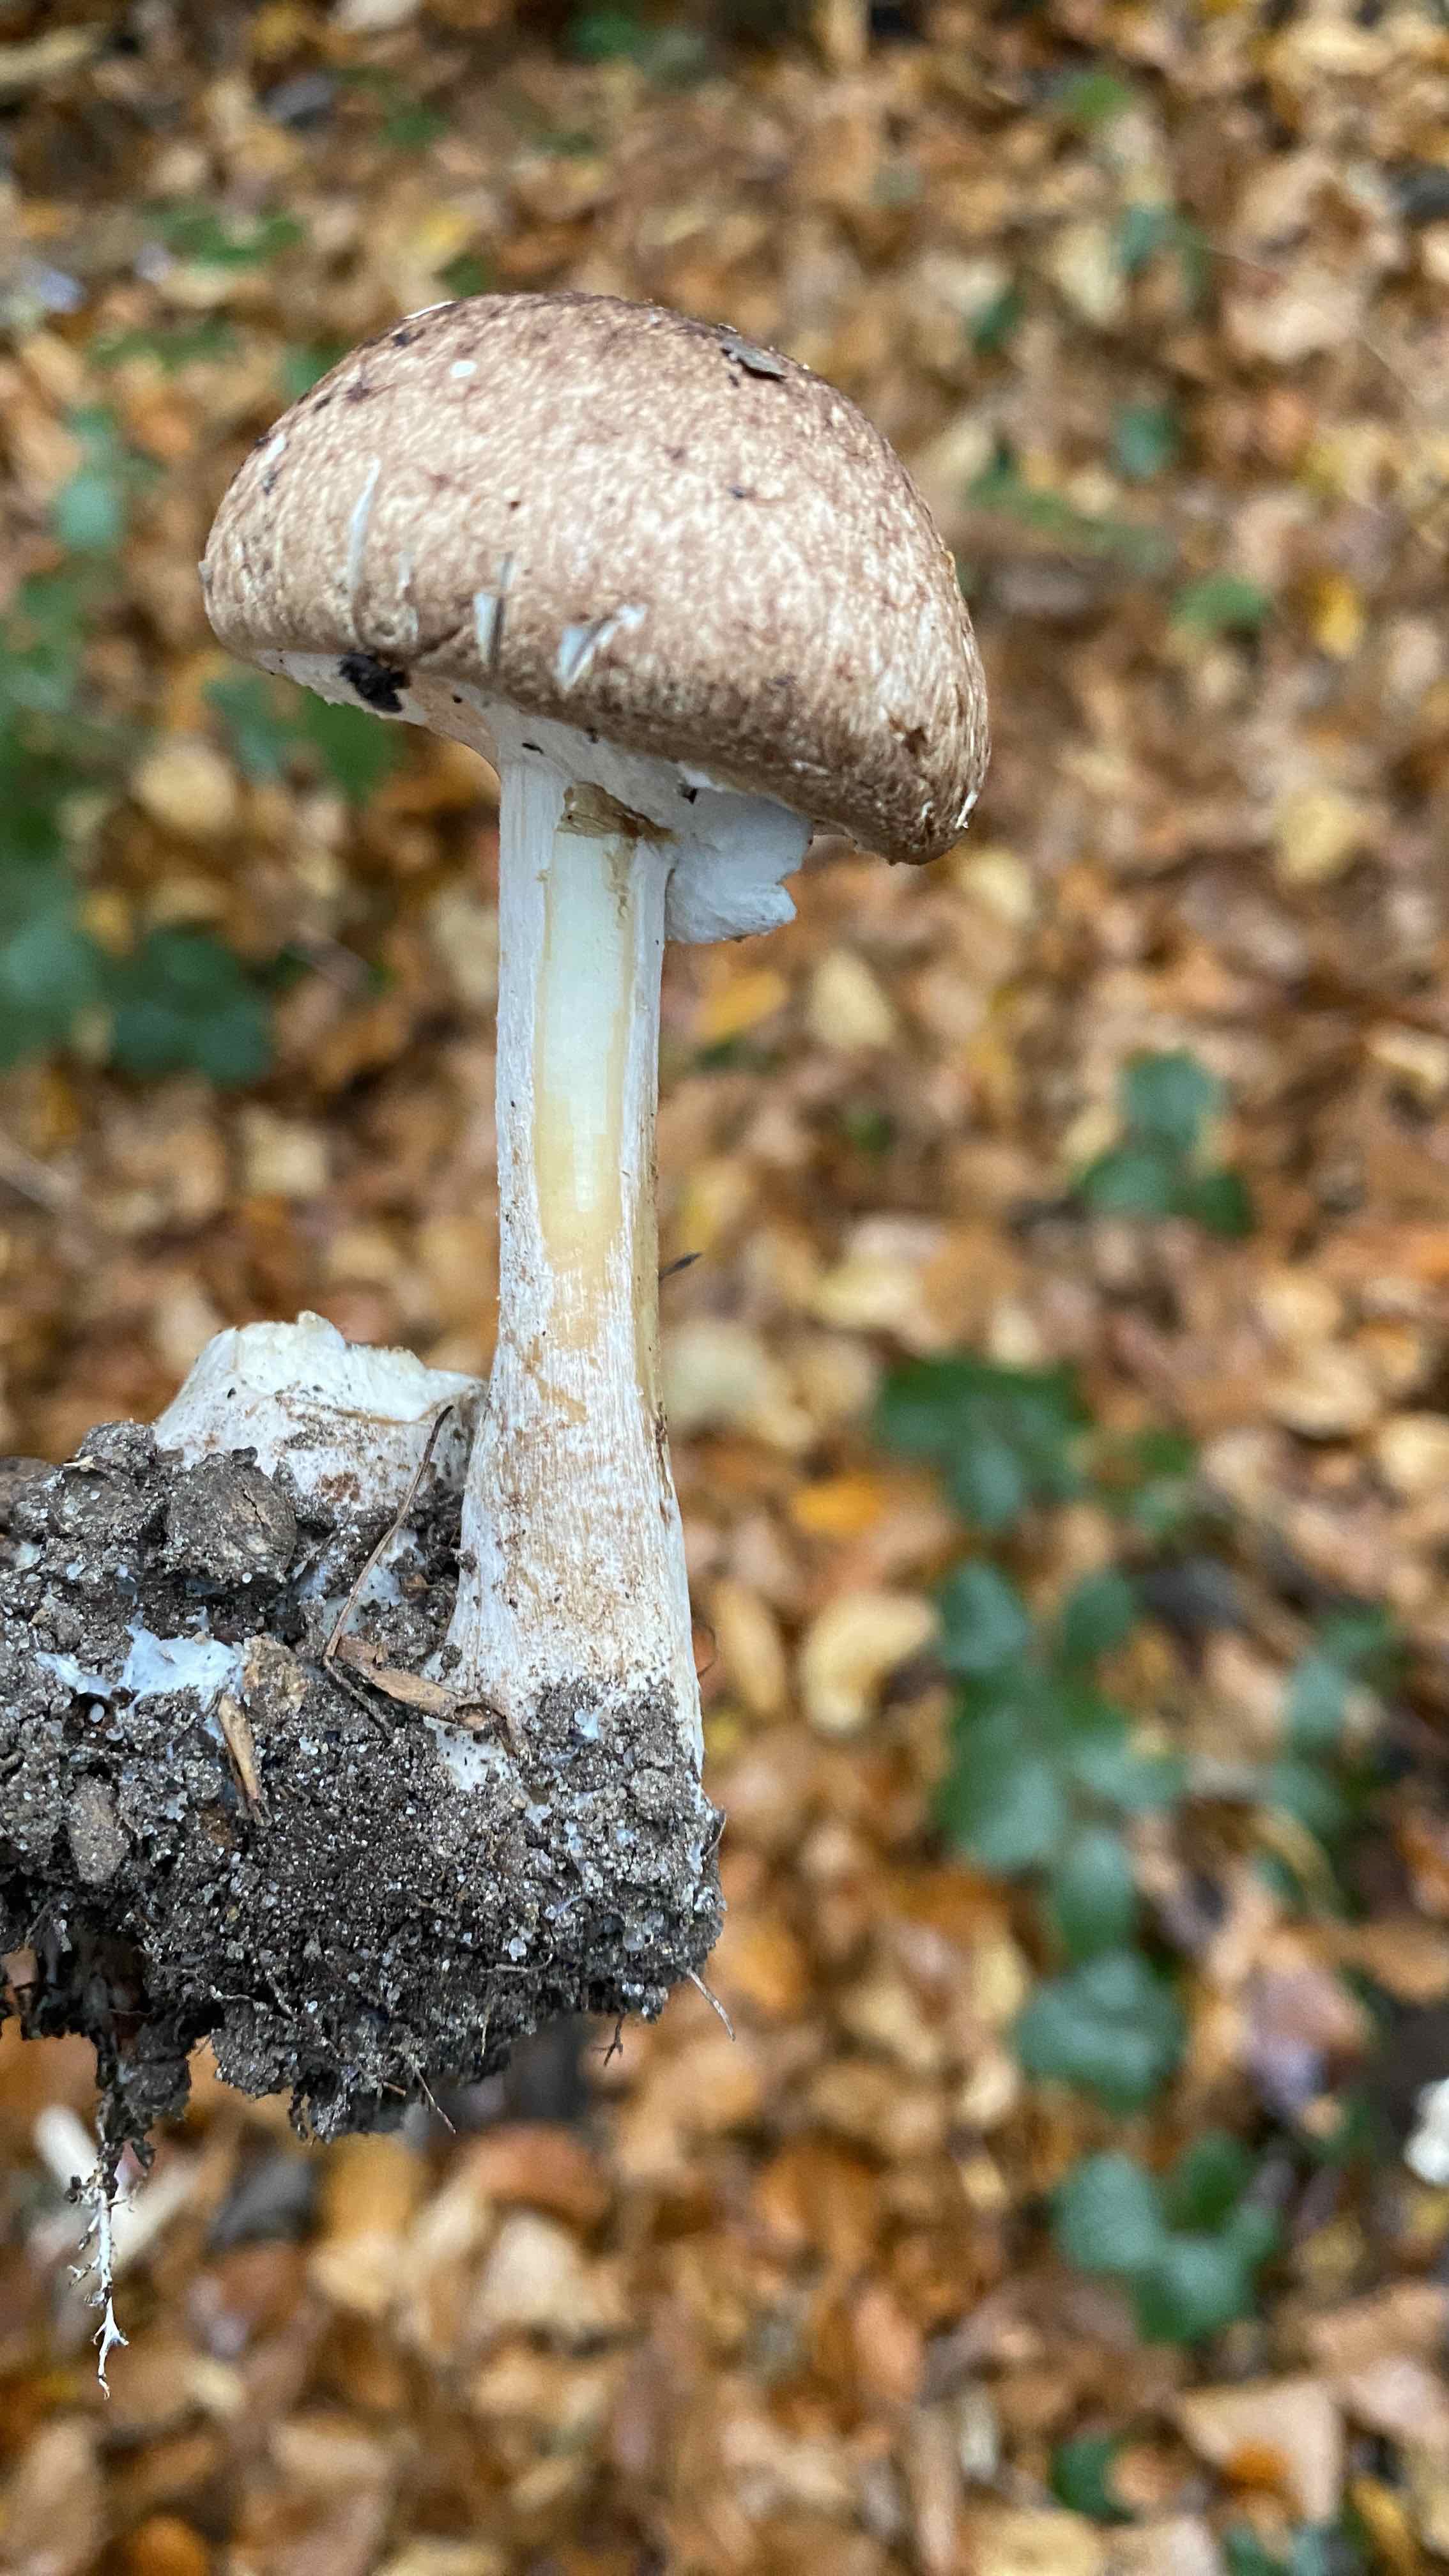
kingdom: Fungi
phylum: Basidiomycota
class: Agaricomycetes
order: Agaricales
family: Agaricaceae
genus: Agaricus
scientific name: Agaricus
